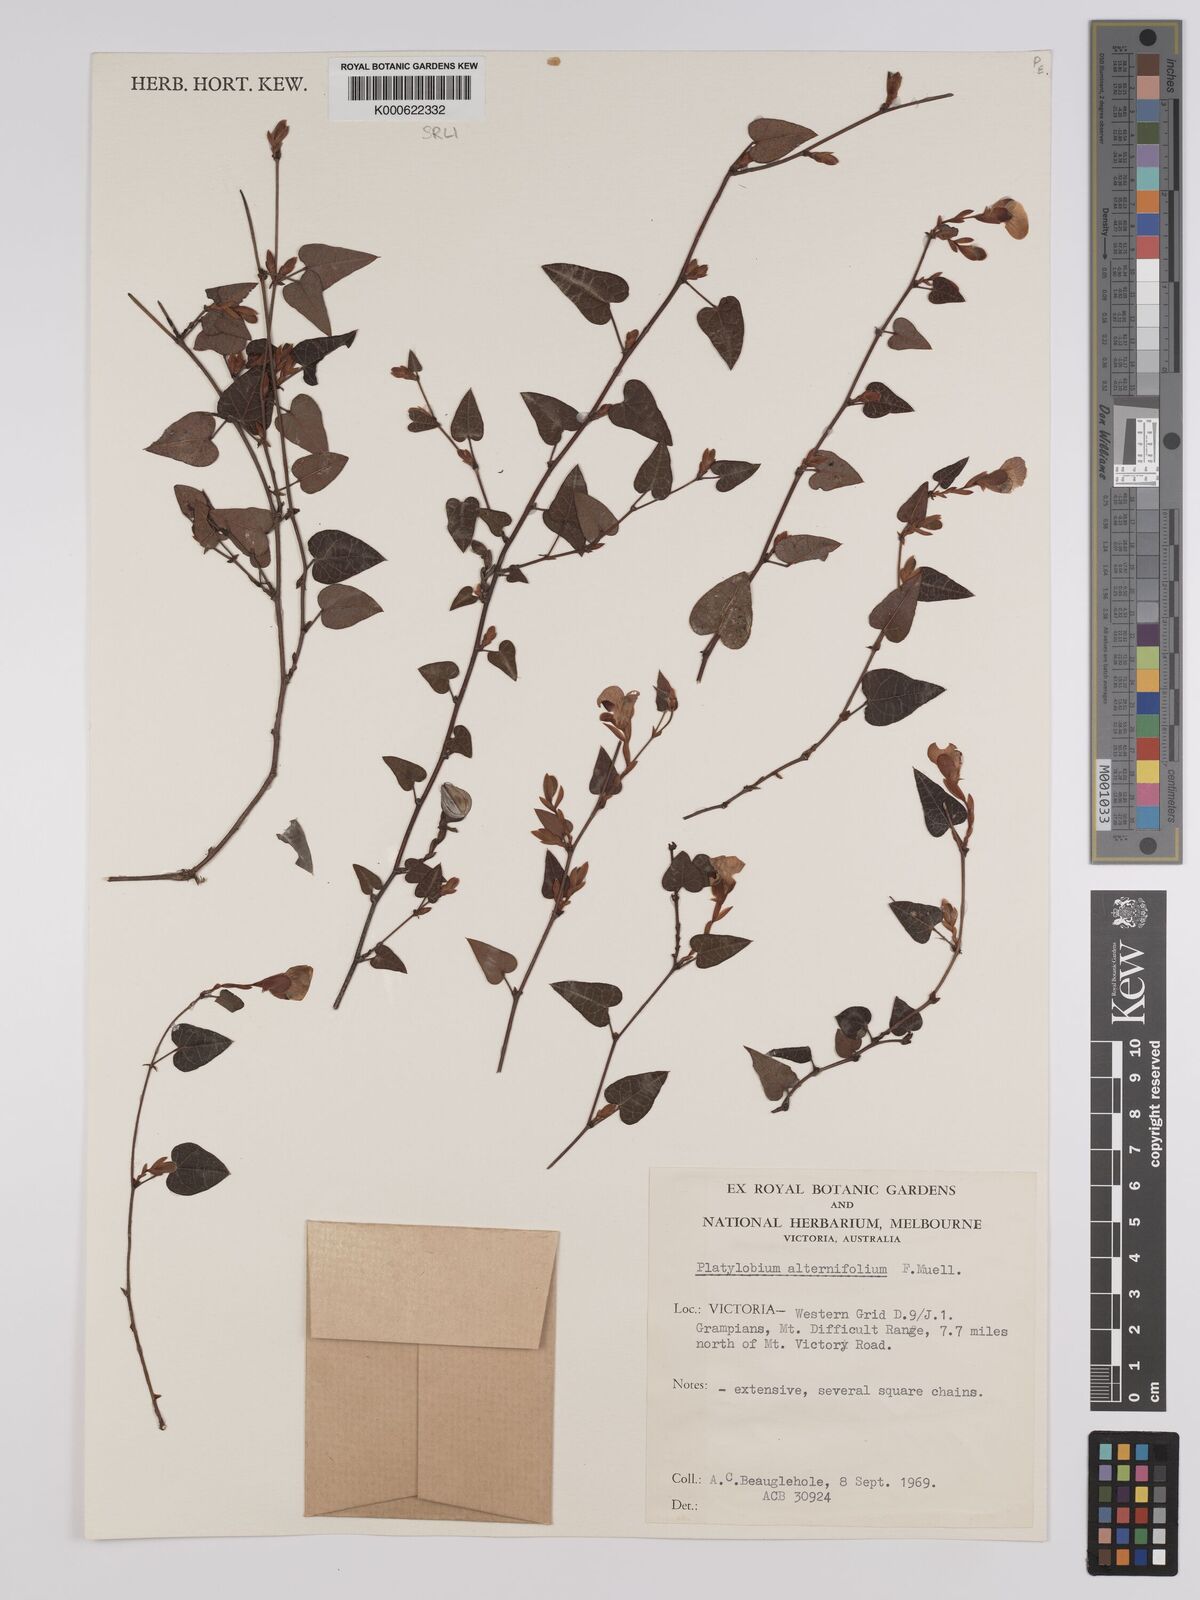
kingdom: Plantae
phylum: Tracheophyta
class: Magnoliopsida
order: Fabales
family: Fabaceae
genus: Platylobium
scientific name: Platylobium alternifolium
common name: Victorian flat-pea
